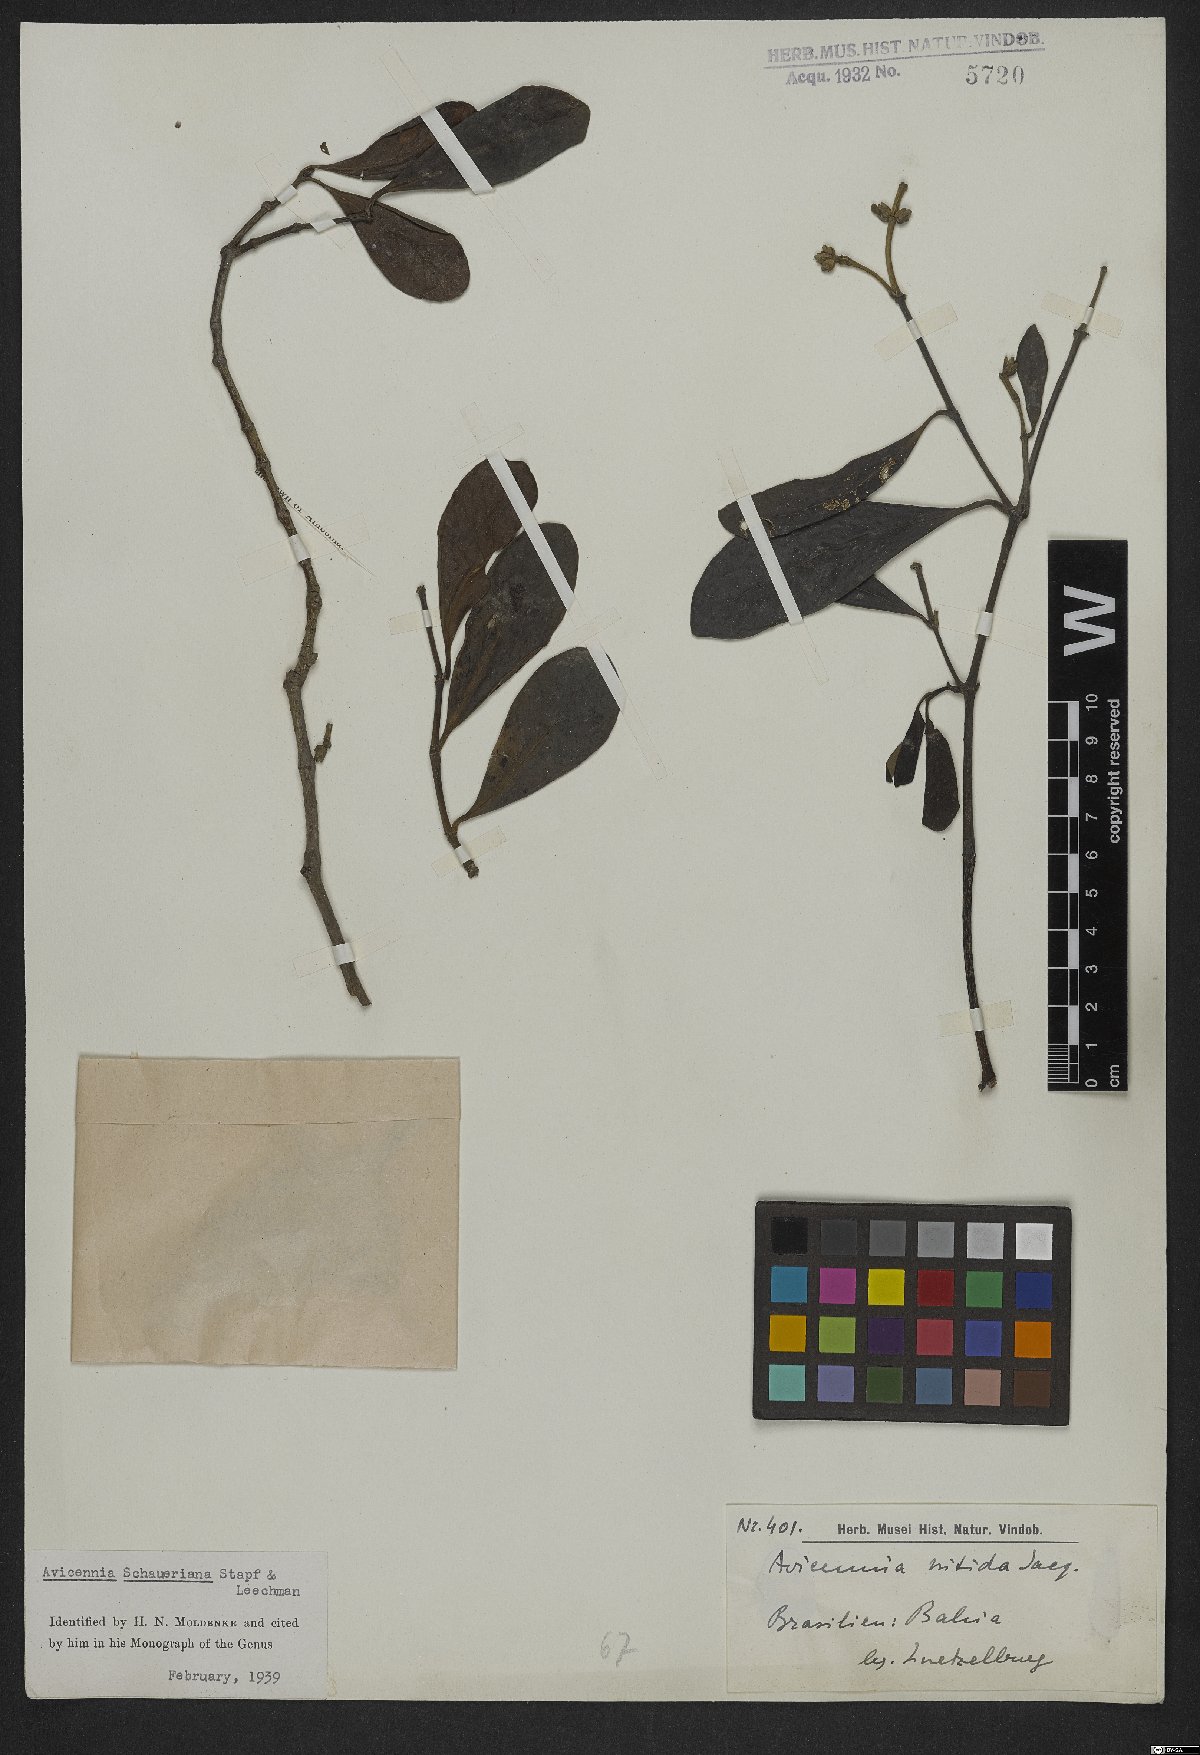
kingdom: Plantae
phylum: Tracheophyta
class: Magnoliopsida
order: Lamiales
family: Acanthaceae
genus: Avicennia
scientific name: Avicennia schaueriana
